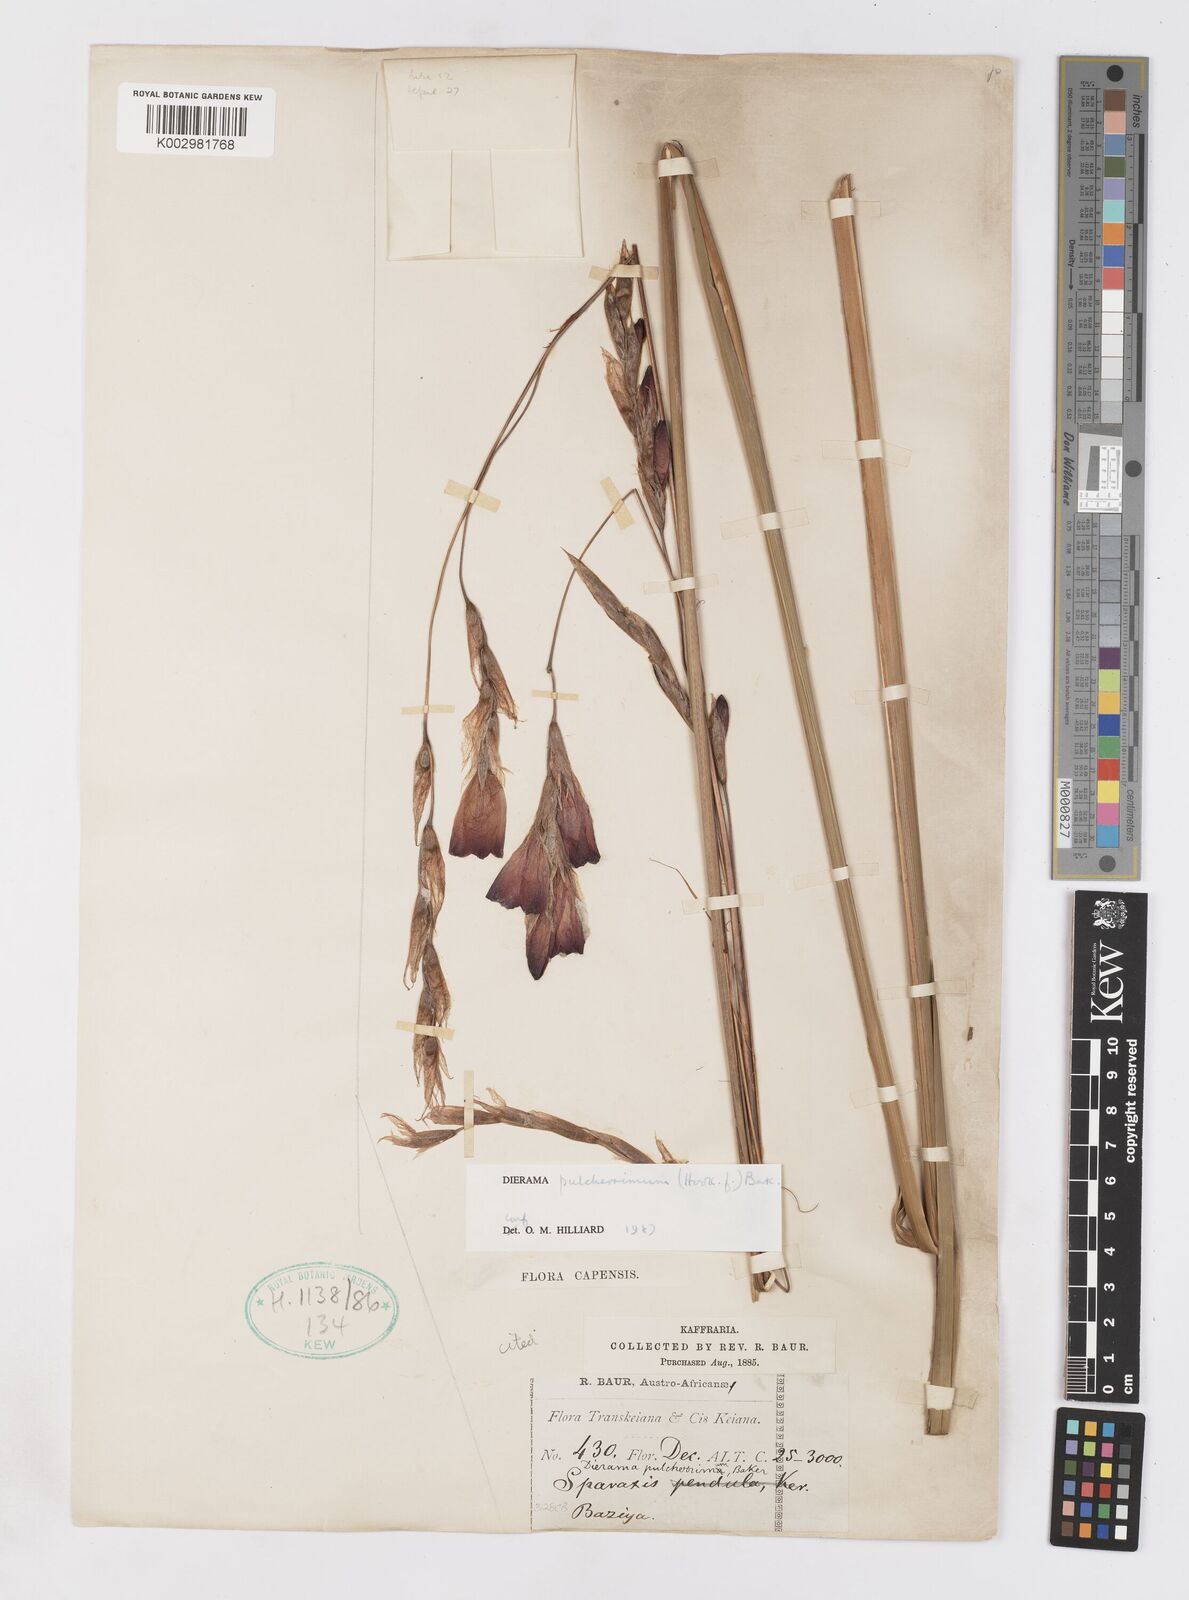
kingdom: Plantae
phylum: Tracheophyta
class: Liliopsida
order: Asparagales
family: Iridaceae
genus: Dierama
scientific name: Dierama pulcherrimum
